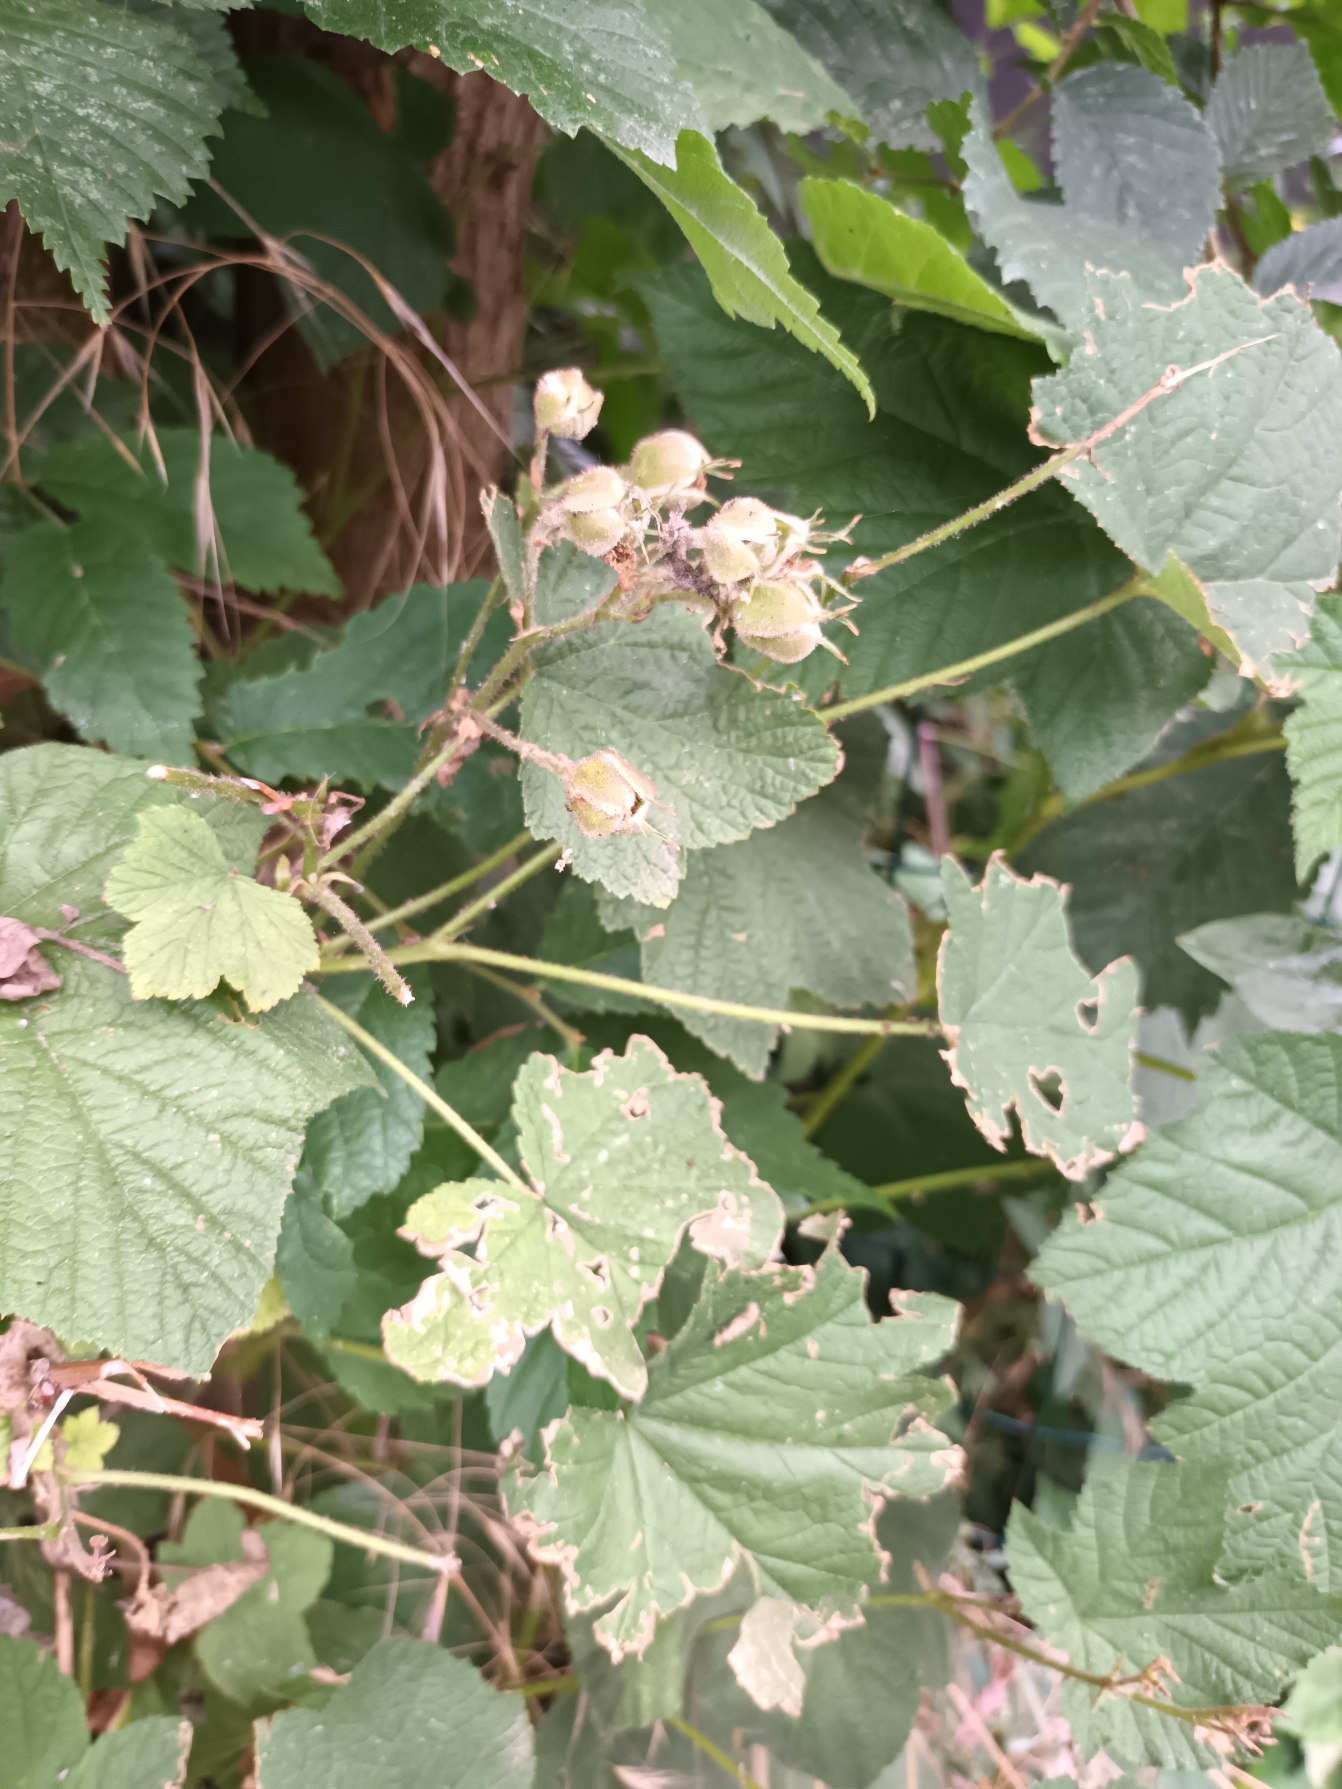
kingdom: Plantae
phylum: Tracheophyta
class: Magnoliopsida
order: Rosales
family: Rosaceae
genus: Rubus
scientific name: Rubus odoratus
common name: Rosen-brombær
